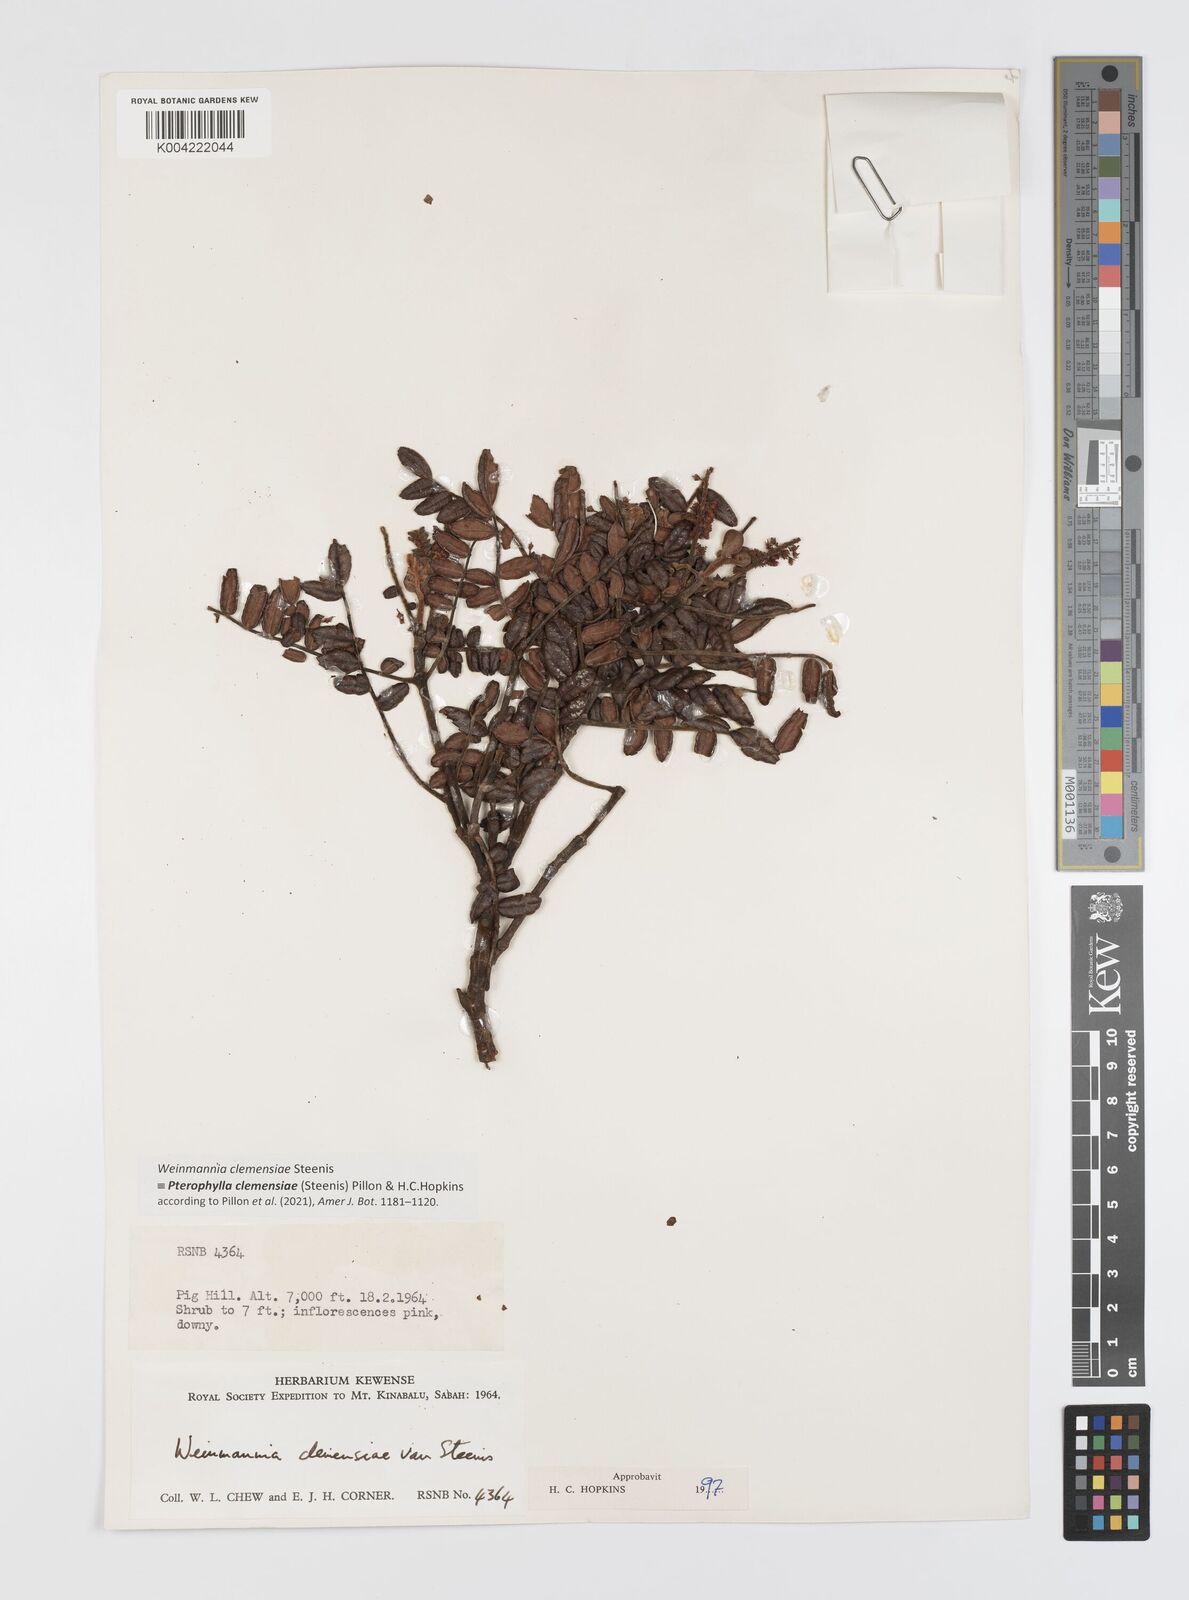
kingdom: Plantae
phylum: Tracheophyta
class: Magnoliopsida
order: Oxalidales
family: Cunoniaceae
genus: Pterophylla
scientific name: Pterophylla clemensiae
